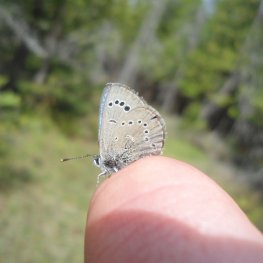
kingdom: Animalia
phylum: Arthropoda
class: Insecta
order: Lepidoptera
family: Lycaenidae
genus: Glaucopsyche
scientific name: Glaucopsyche lygdamus
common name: Silvery Blue
